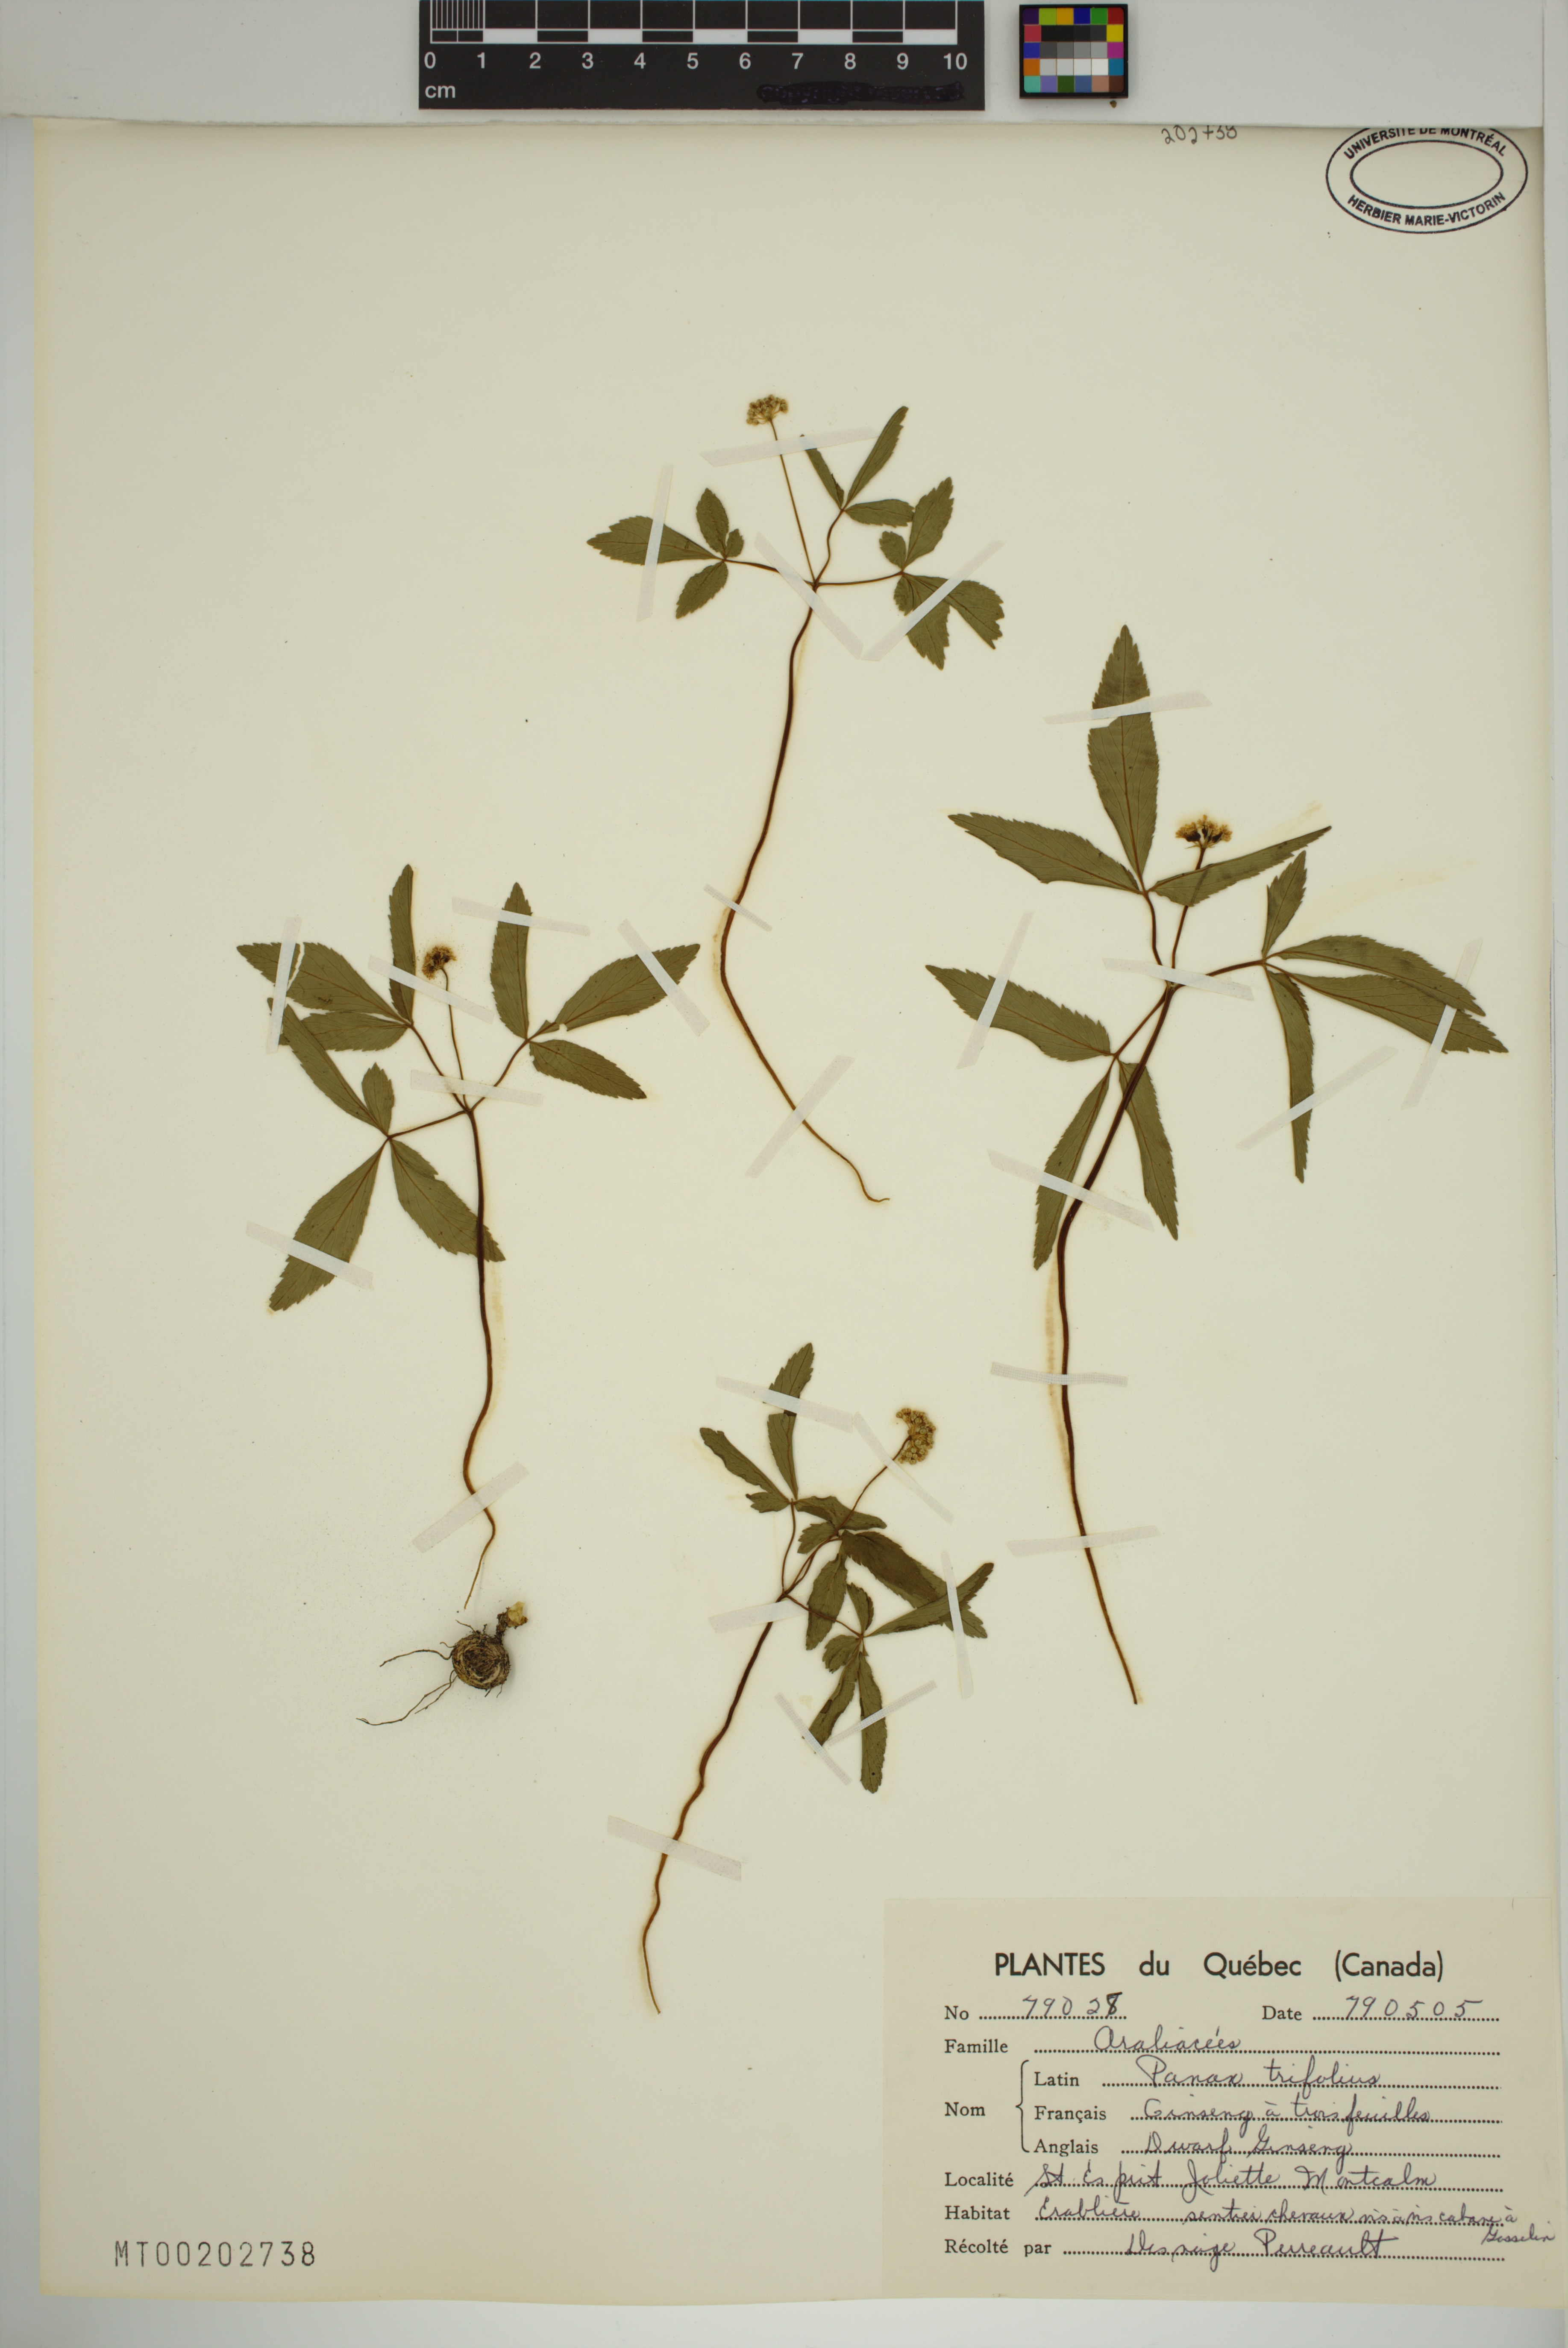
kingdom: Plantae
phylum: Tracheophyta
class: Magnoliopsida
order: Apiales
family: Araliaceae
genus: Panax
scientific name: Panax trifolius
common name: Dwarf ginseng
